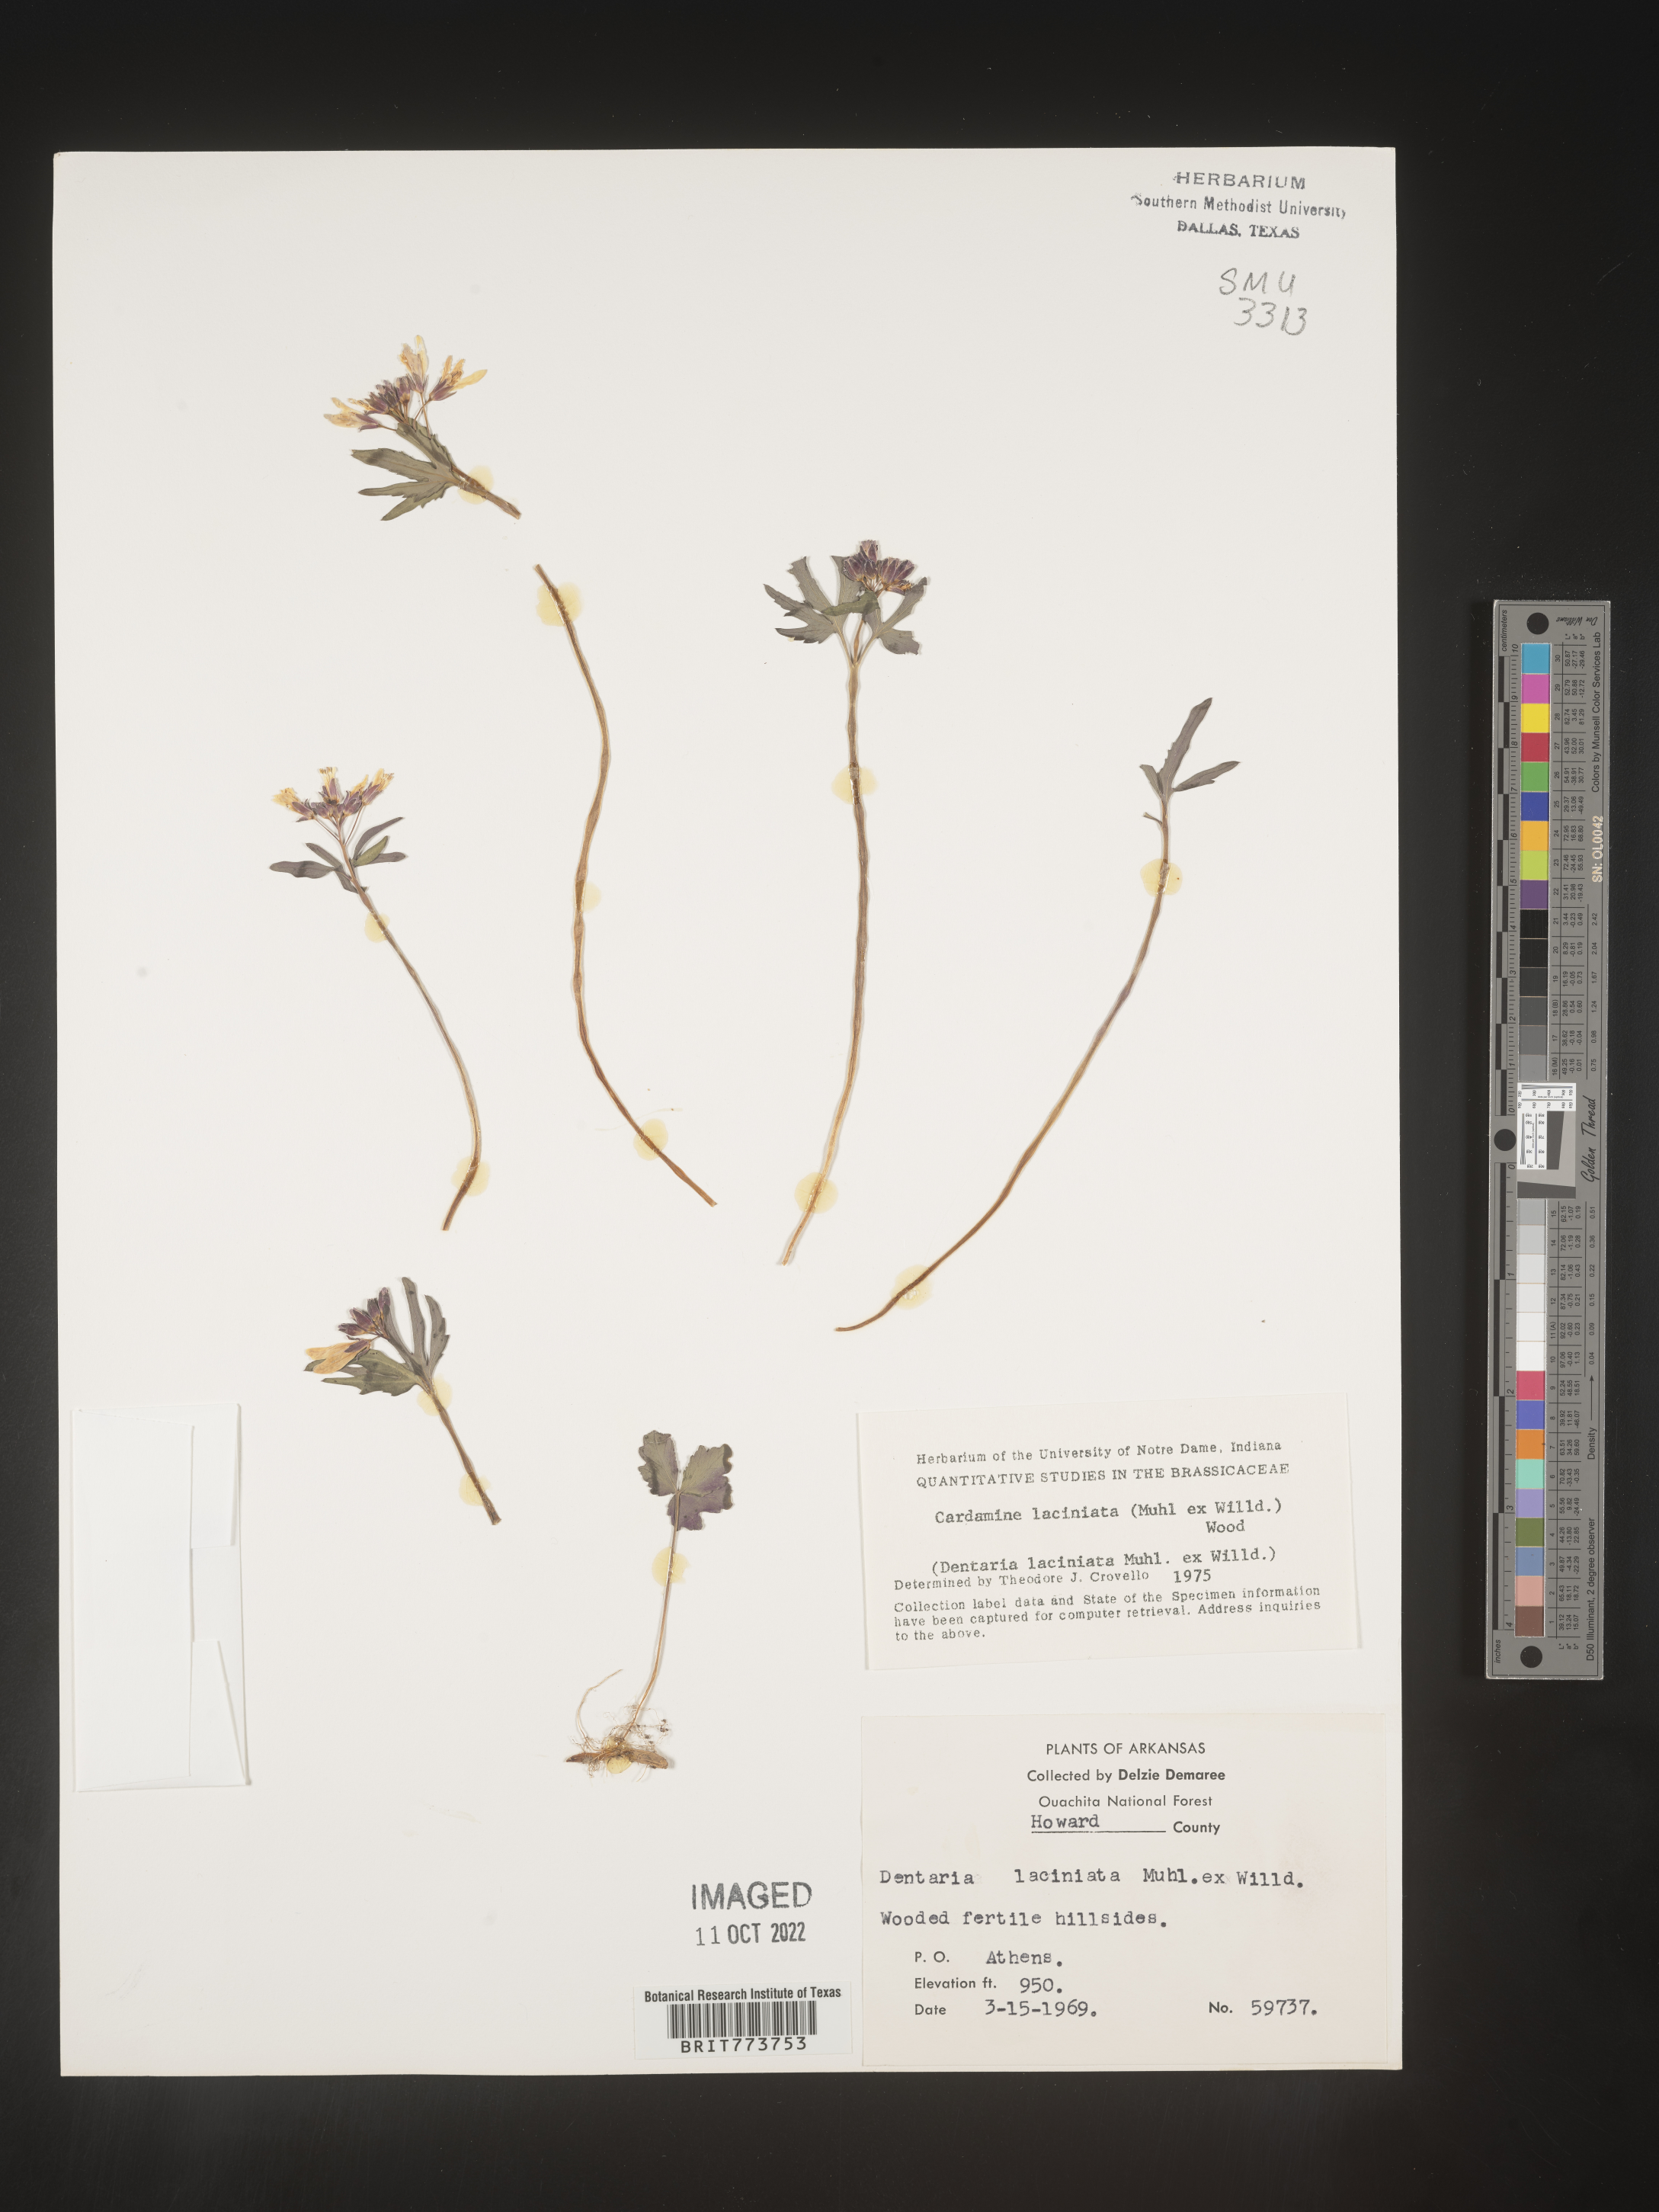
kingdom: Plantae
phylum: Tracheophyta
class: Magnoliopsida
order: Brassicales
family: Brassicaceae
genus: Rorippa
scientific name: Rorippa laciniata
